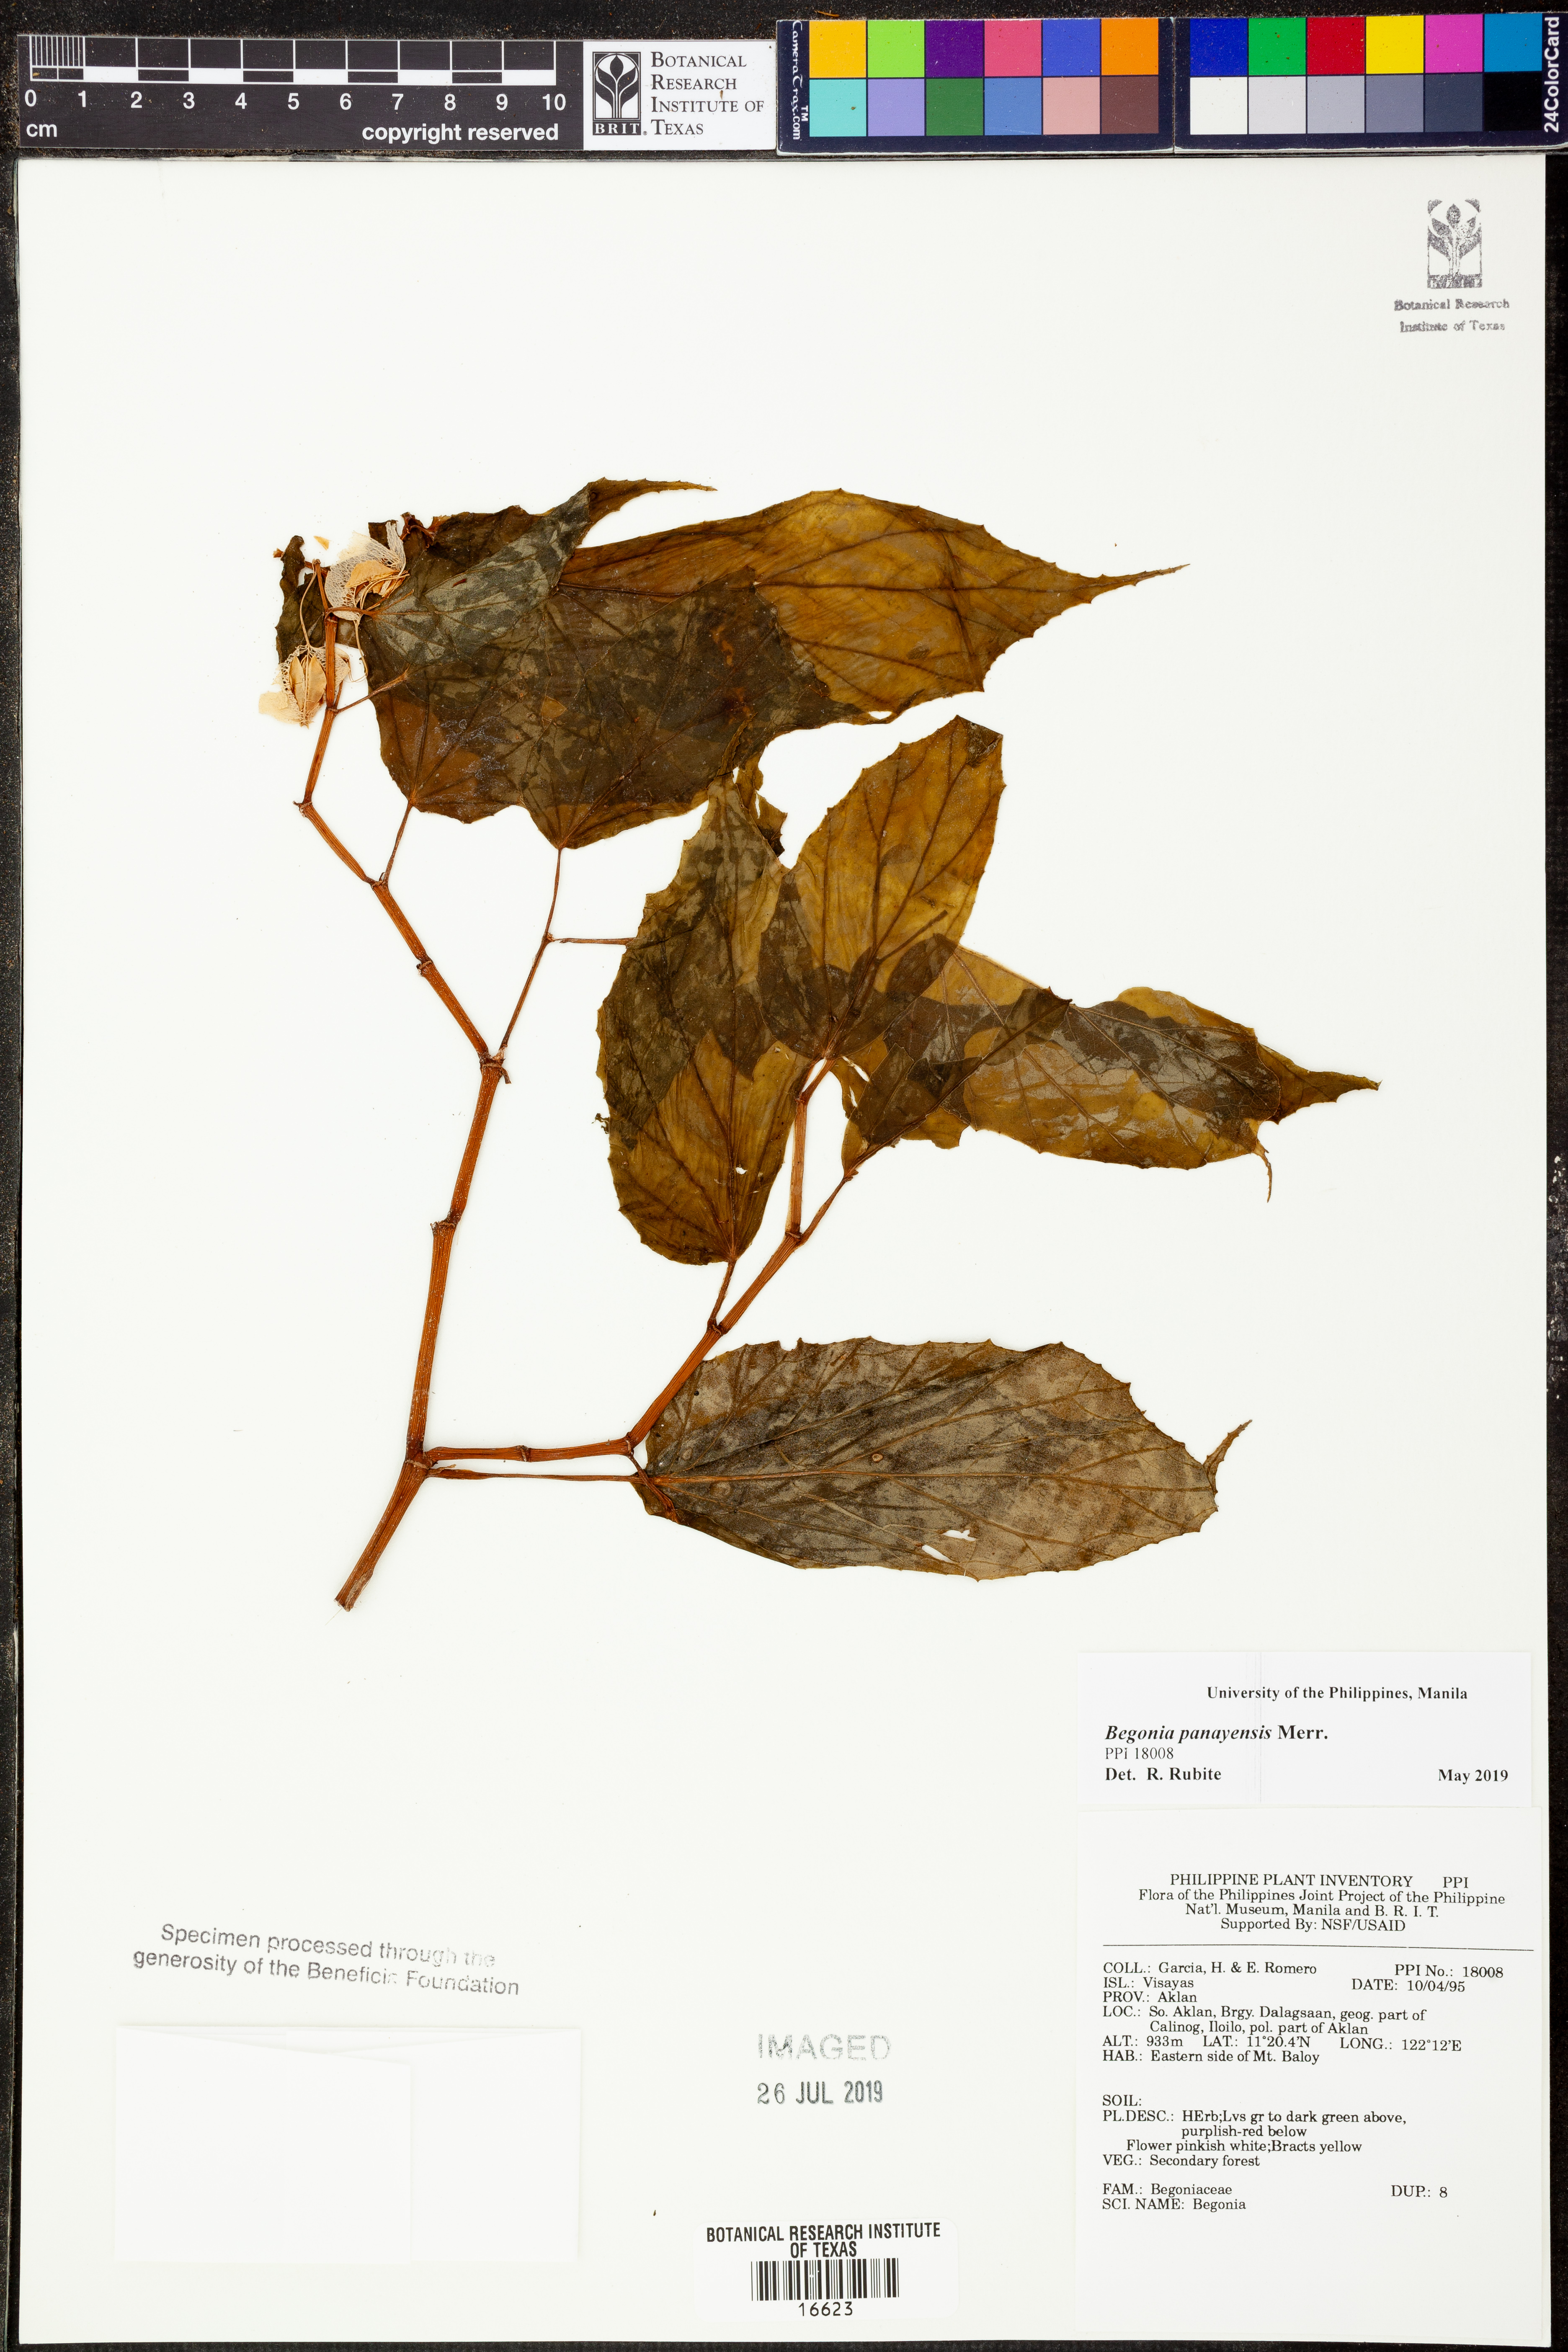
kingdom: Plantae
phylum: Tracheophyta
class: Magnoliopsida
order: Cucurbitales
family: Begoniaceae
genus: Begonia
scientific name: Begonia panayensis
